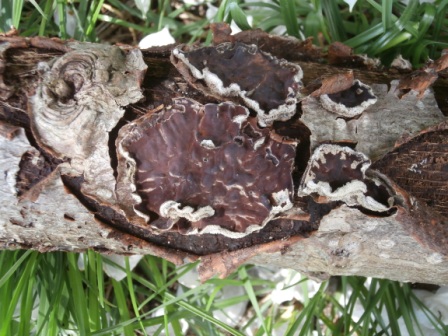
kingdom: Fungi
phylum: Basidiomycota
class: Agaricomycetes
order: Agaricales
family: Cyphellaceae
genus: Chondrostereum
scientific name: Chondrostereum purpureum
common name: purpurlædersvamp
